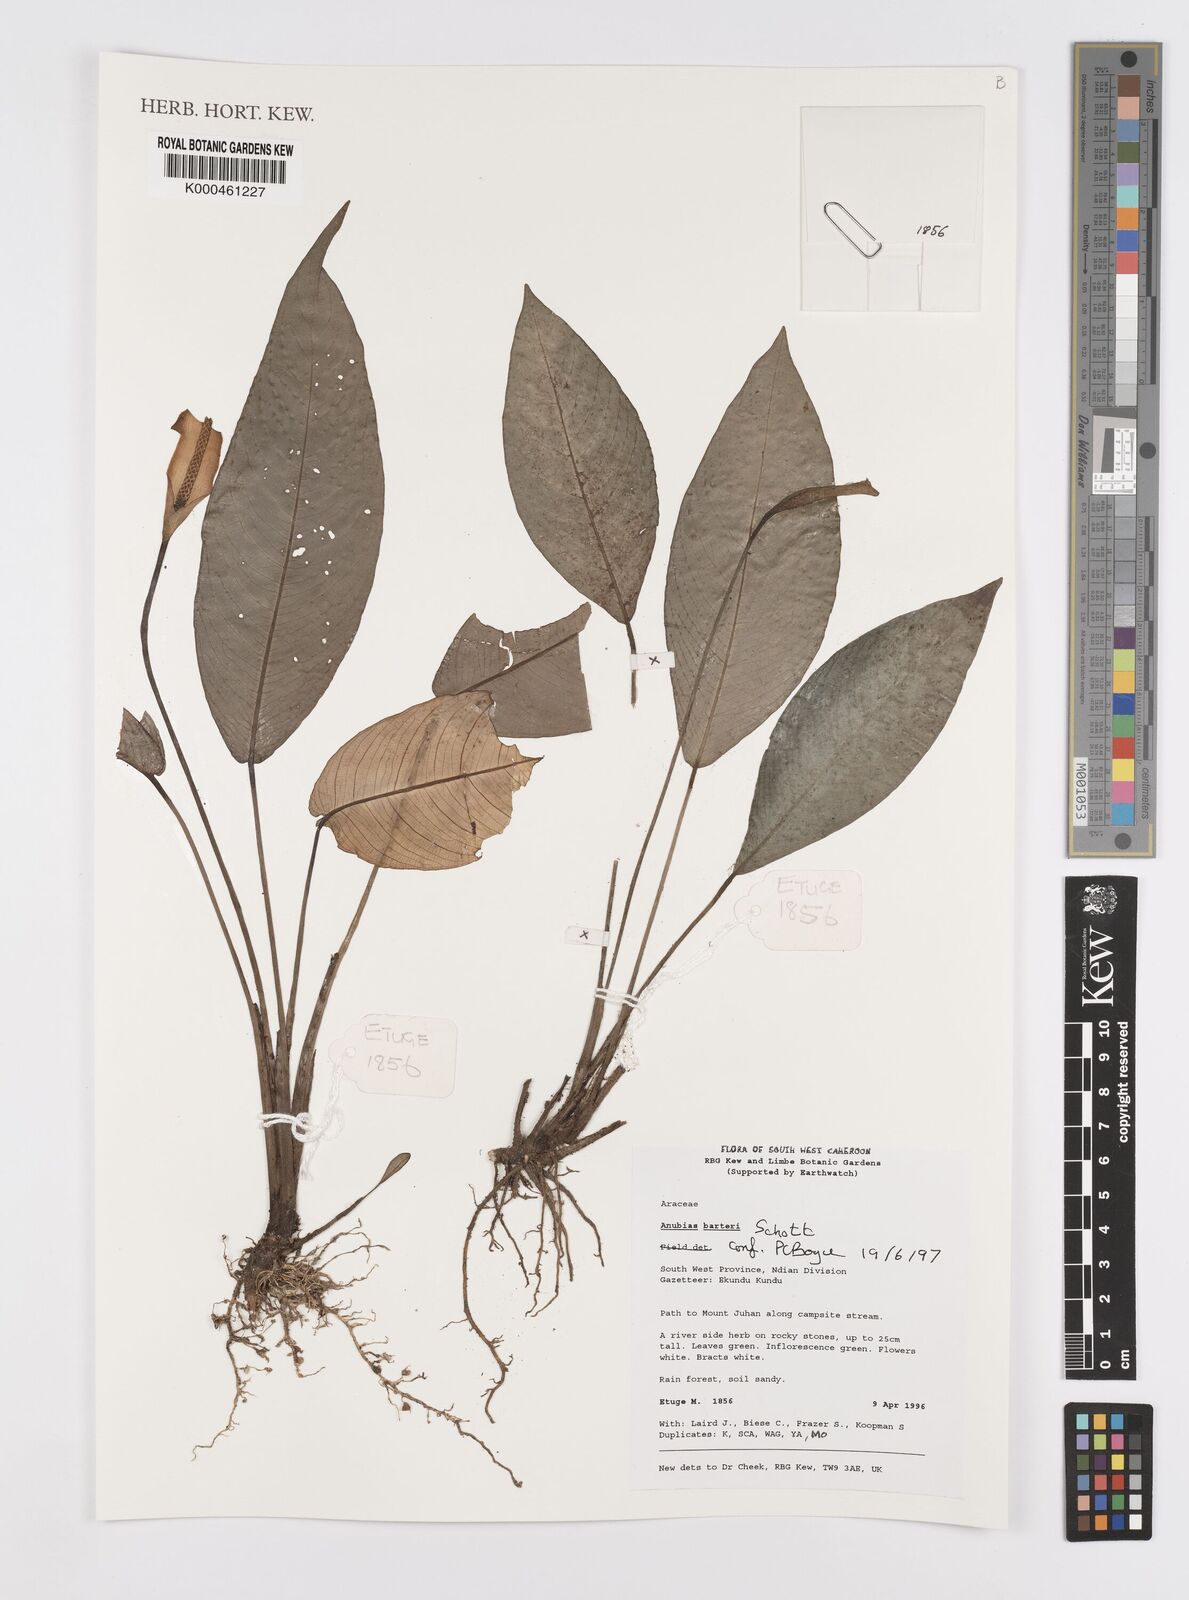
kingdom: Plantae
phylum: Tracheophyta
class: Liliopsida
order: Alismatales
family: Araceae
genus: Anubias
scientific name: Anubias barteri
